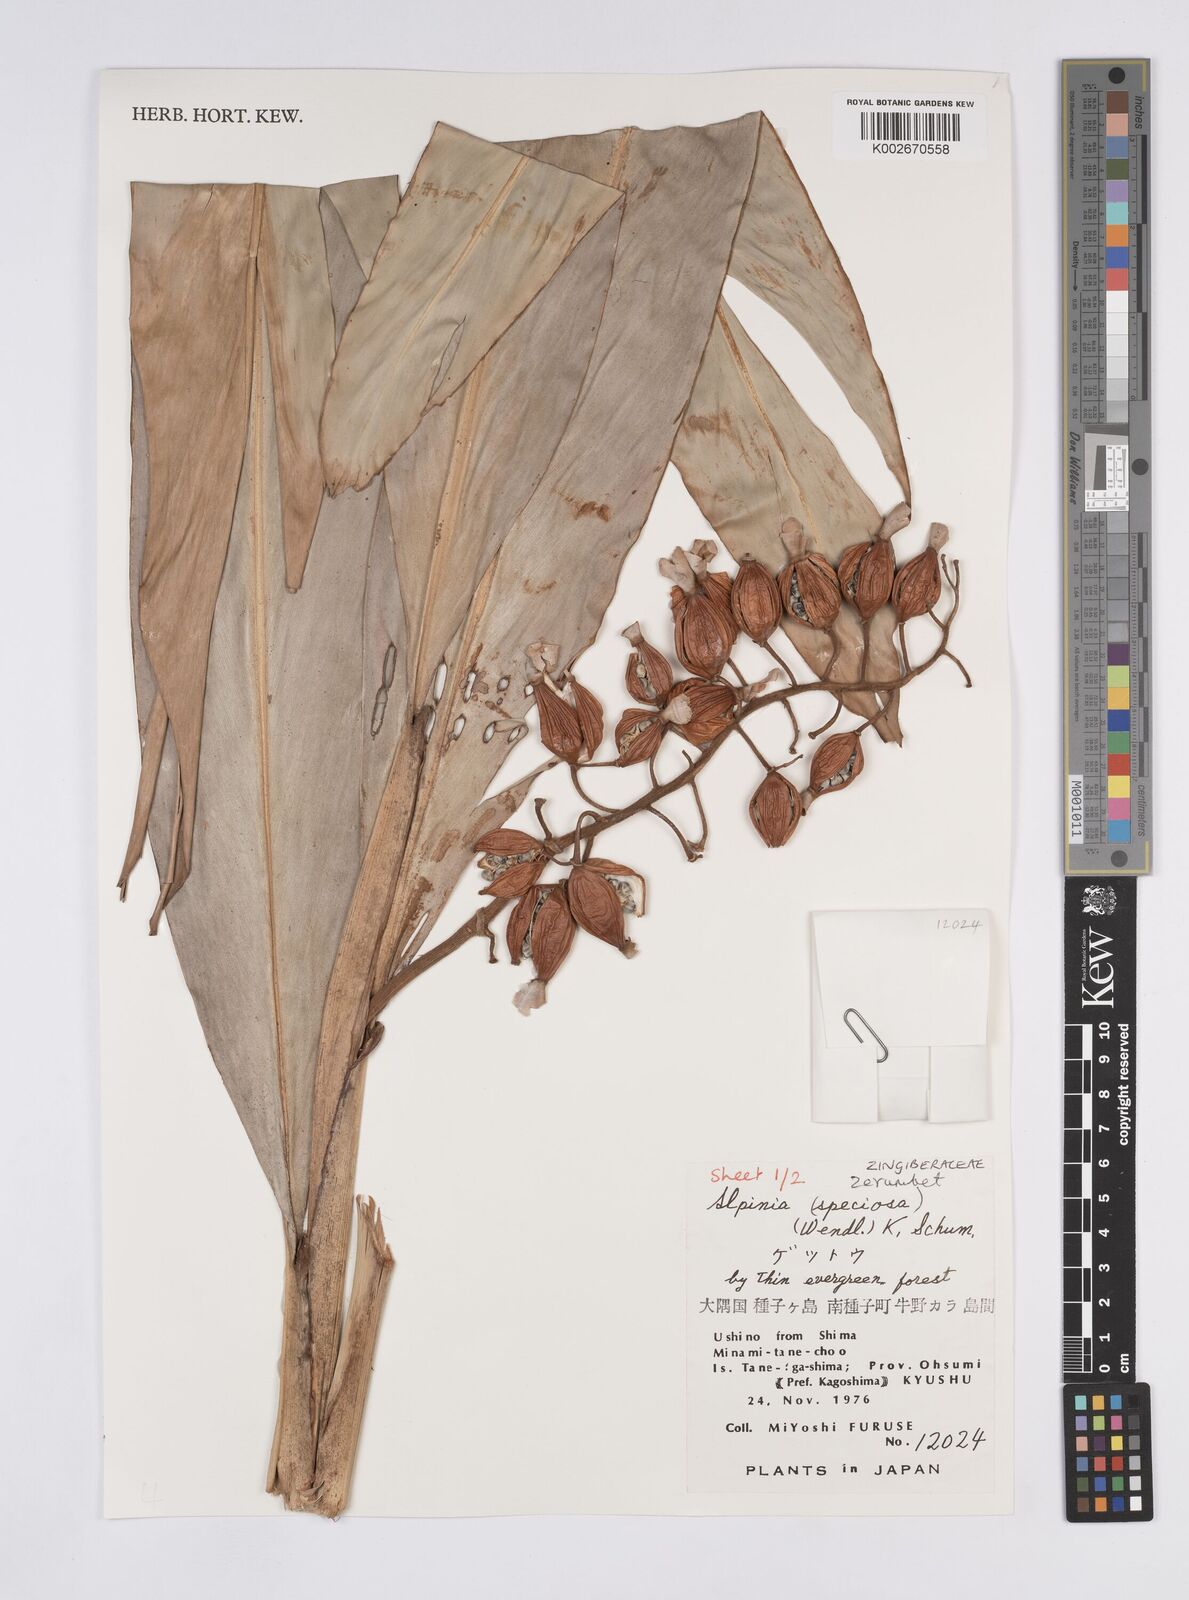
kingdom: Plantae
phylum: Tracheophyta
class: Liliopsida
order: Zingiberales
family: Zingiberaceae
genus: Alpinia
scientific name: Alpinia zerumbet
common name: Shellplant
